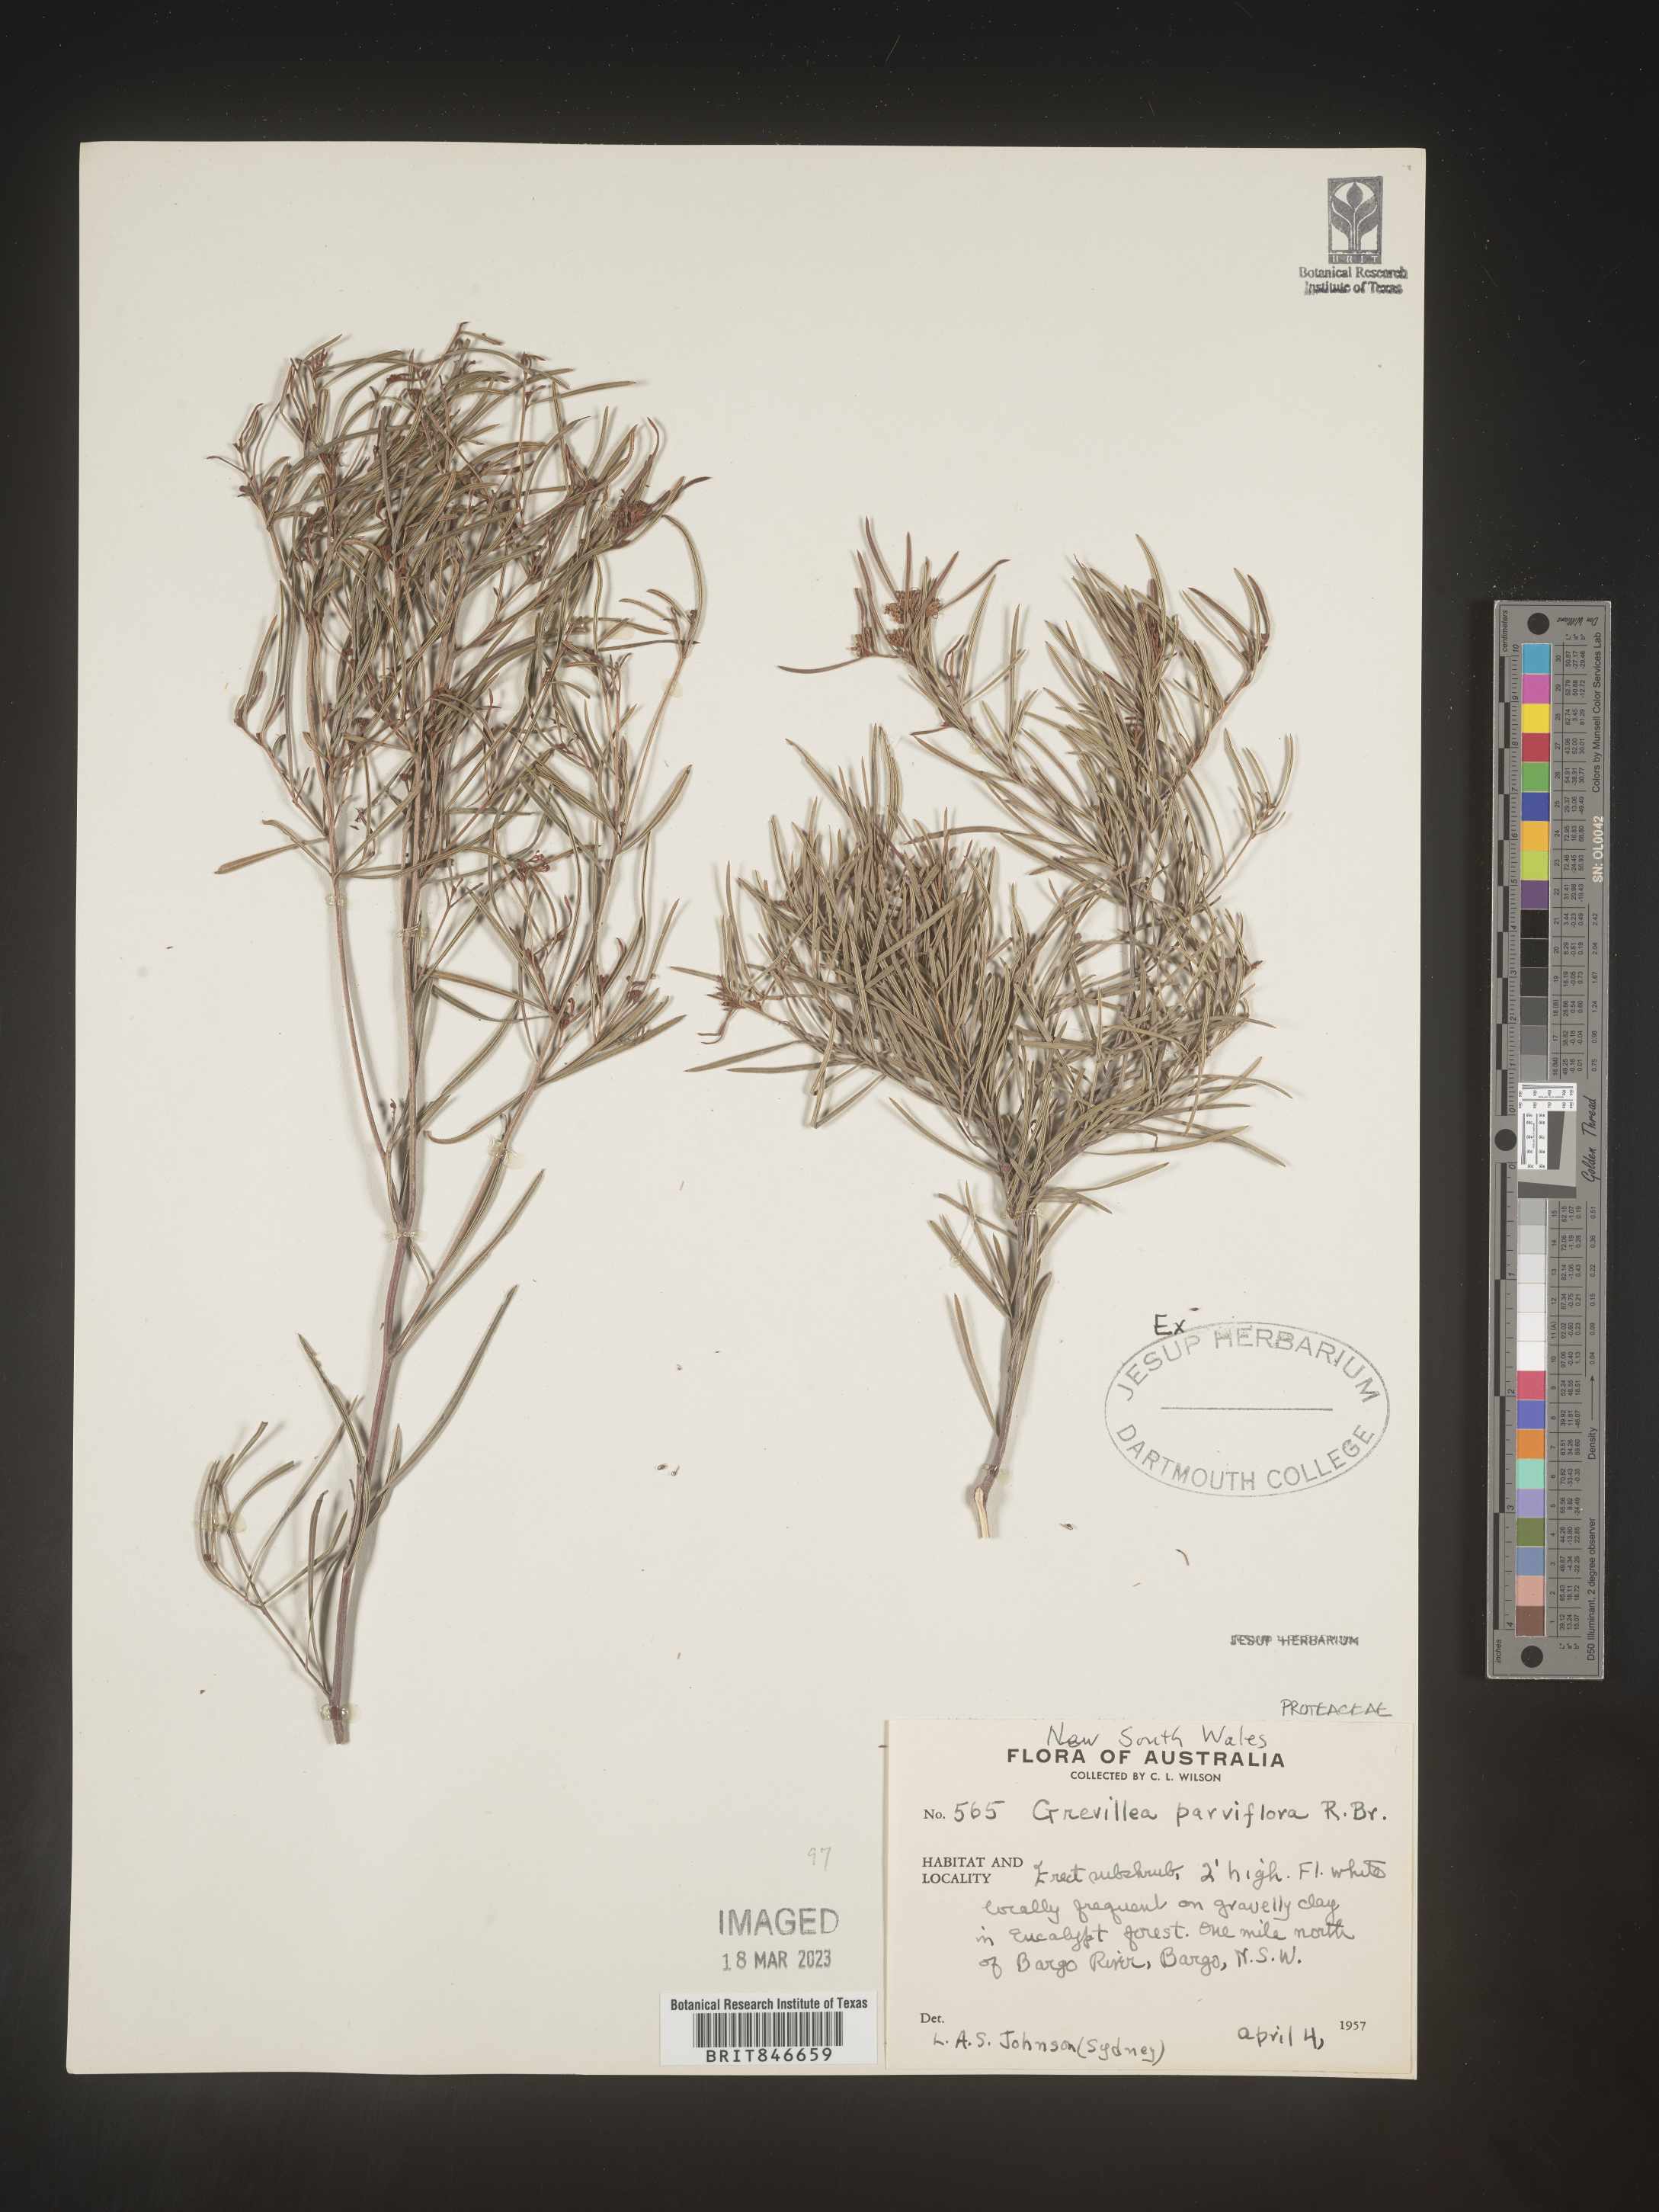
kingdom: Plantae
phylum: Tracheophyta
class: Magnoliopsida
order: Proteales
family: Proteaceae
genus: Grevillea
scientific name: Grevillea
